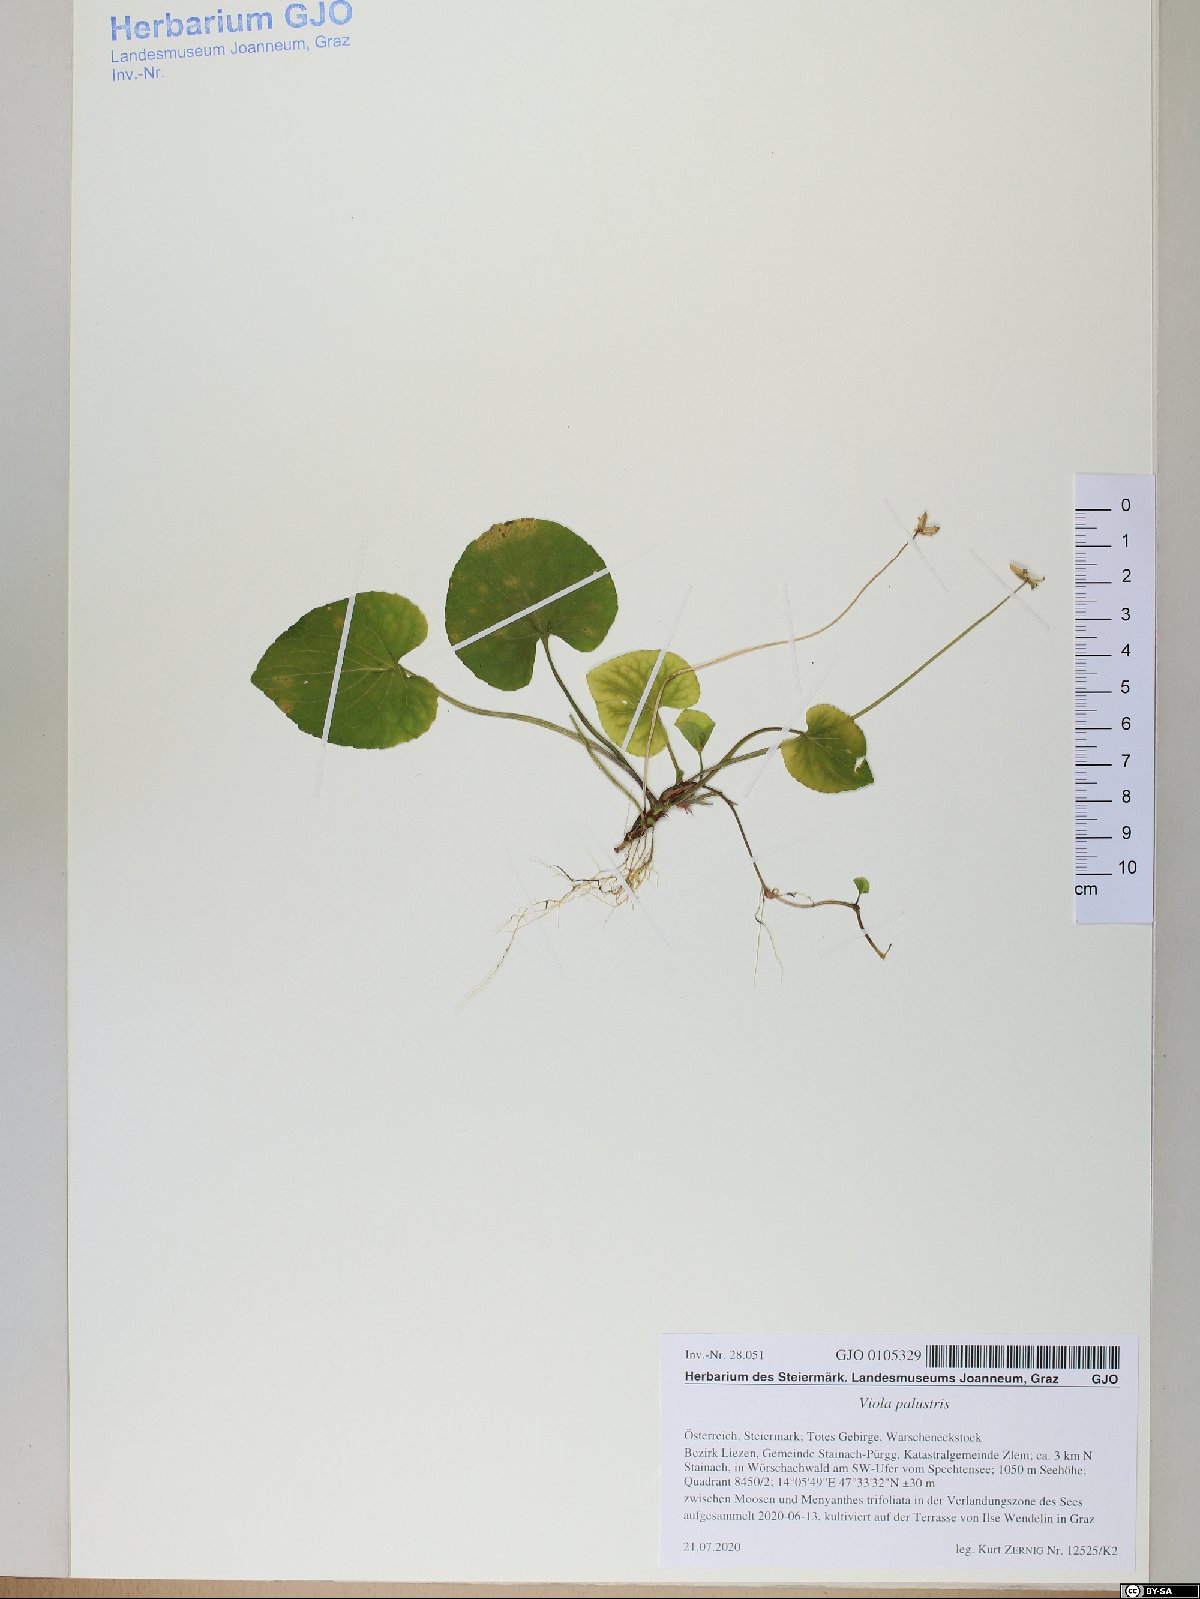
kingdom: Plantae
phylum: Tracheophyta
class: Magnoliopsida
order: Malpighiales
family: Violaceae
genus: Viola
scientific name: Viola palustris
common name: Marsh violet
